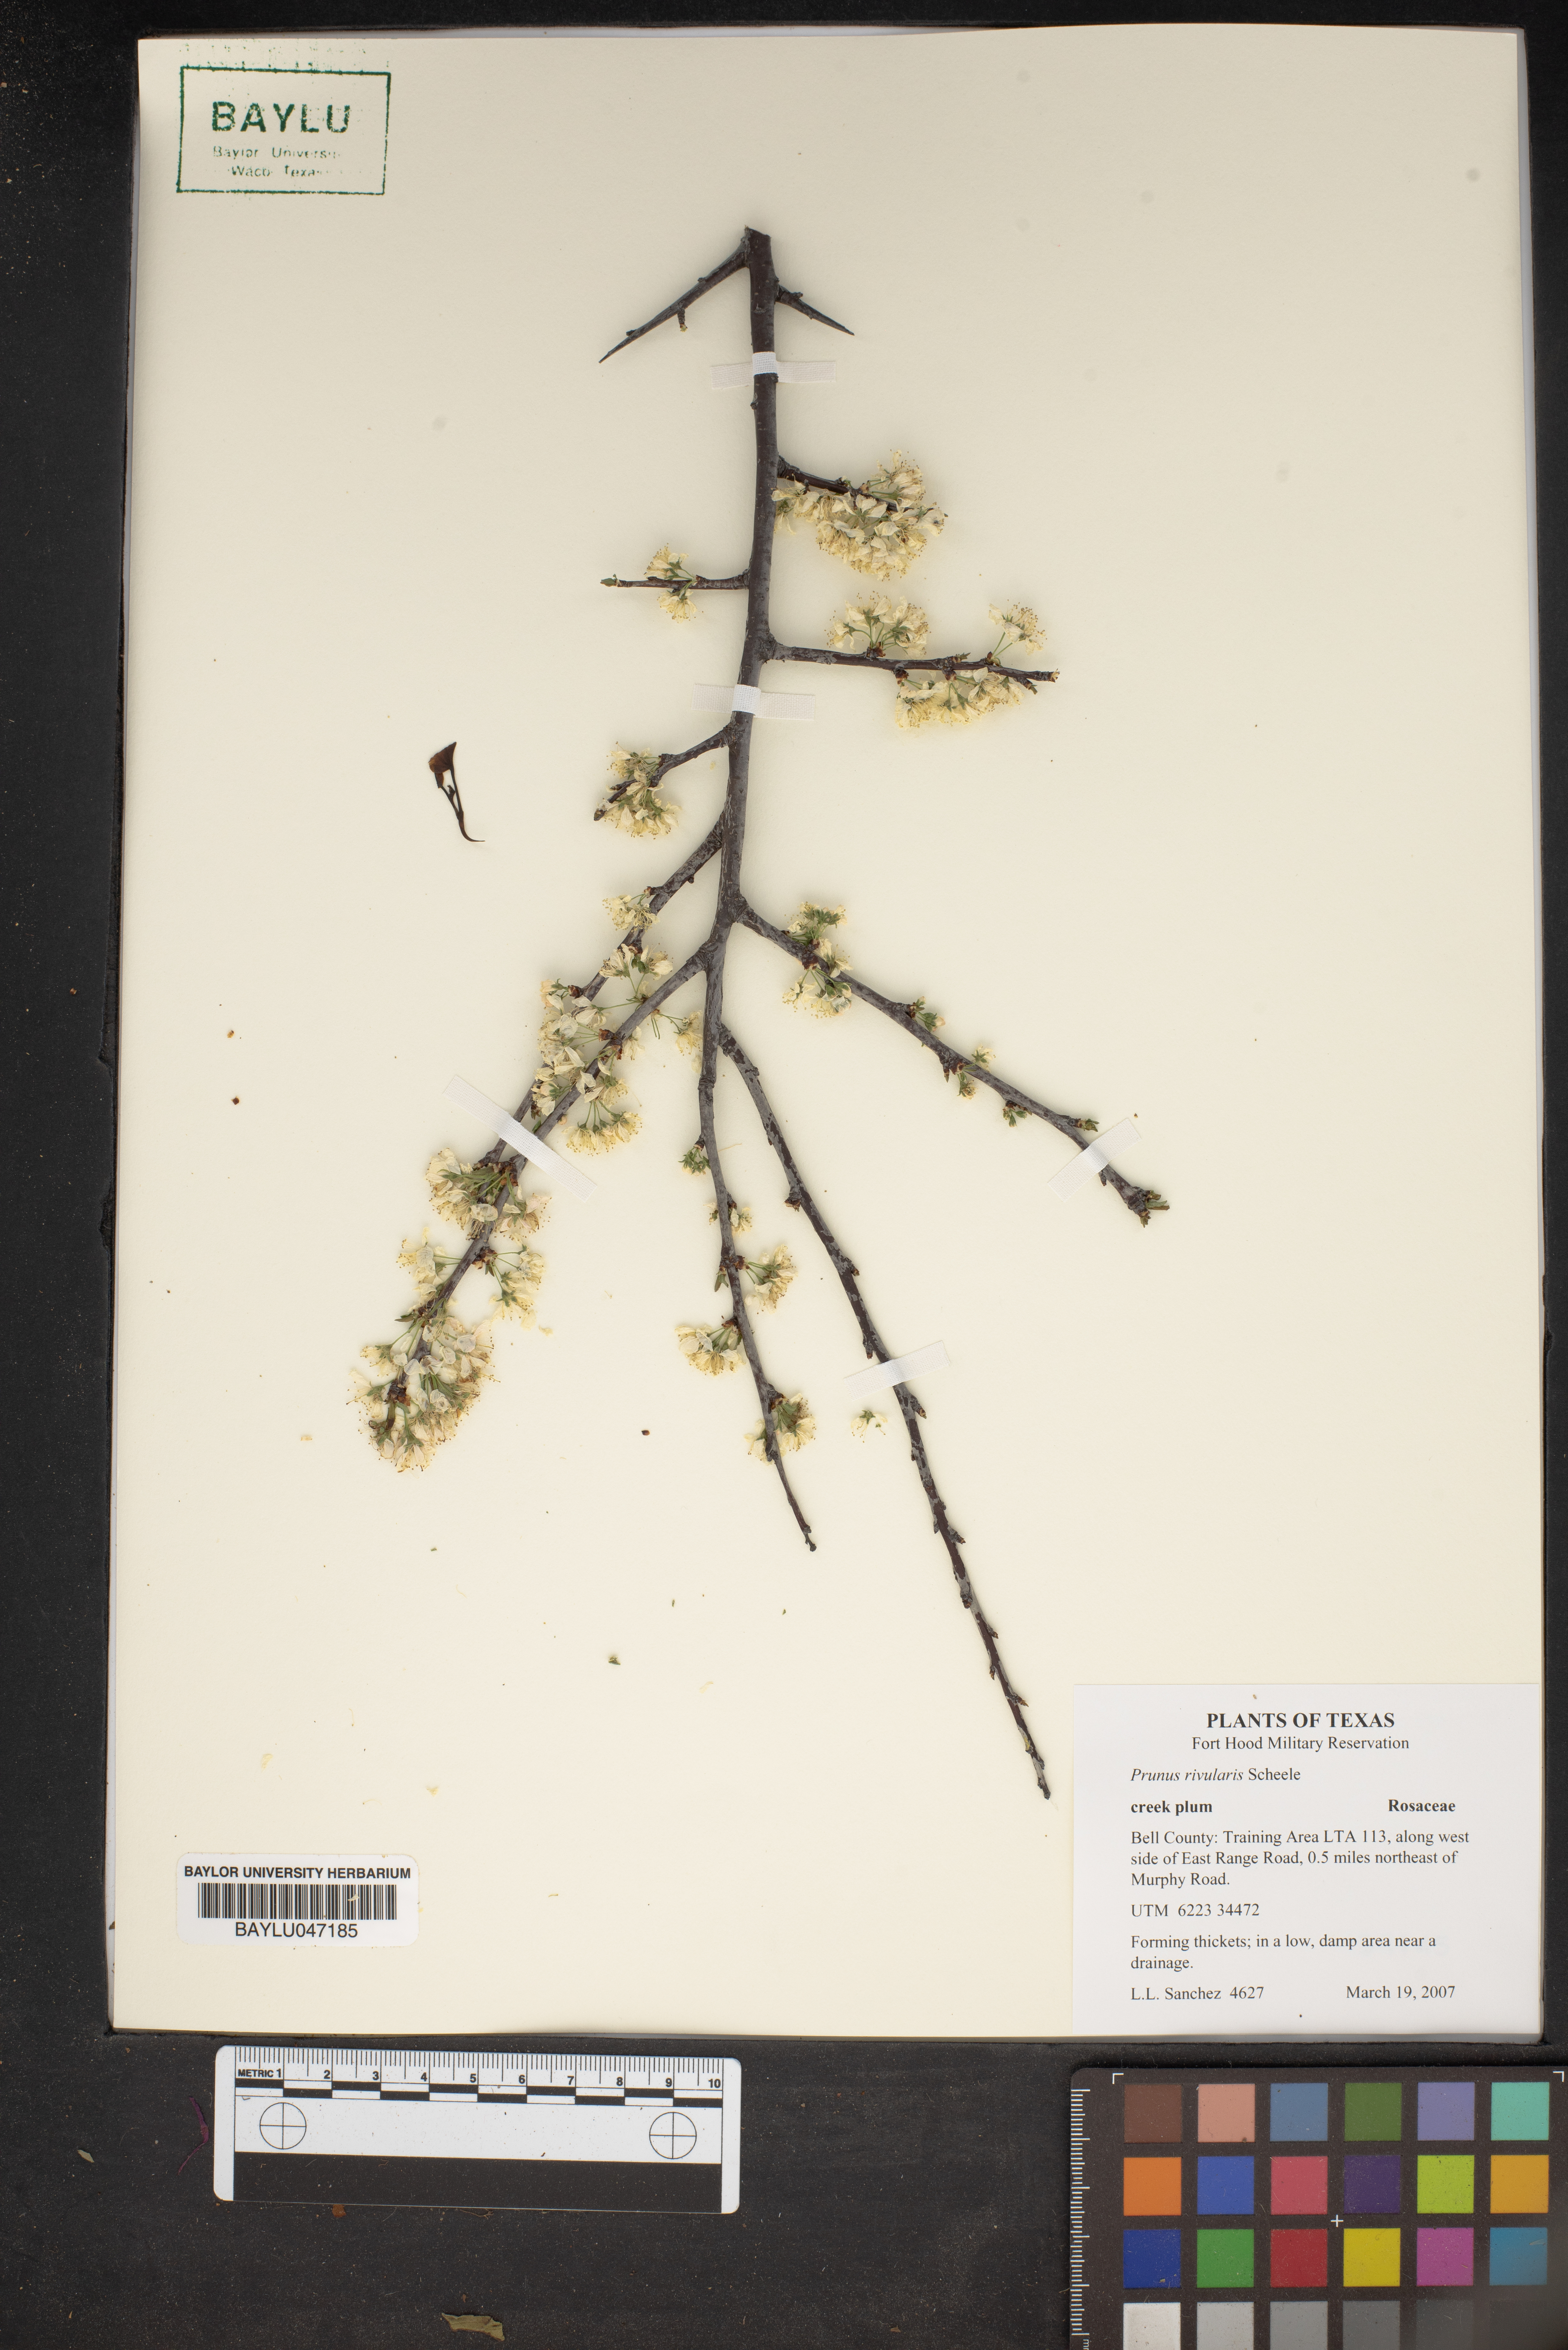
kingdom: Plantae
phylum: Tracheophyta
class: Magnoliopsida
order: Rosales
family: Rosaceae
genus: Prunus
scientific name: Prunus rivularis
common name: Creek plum
